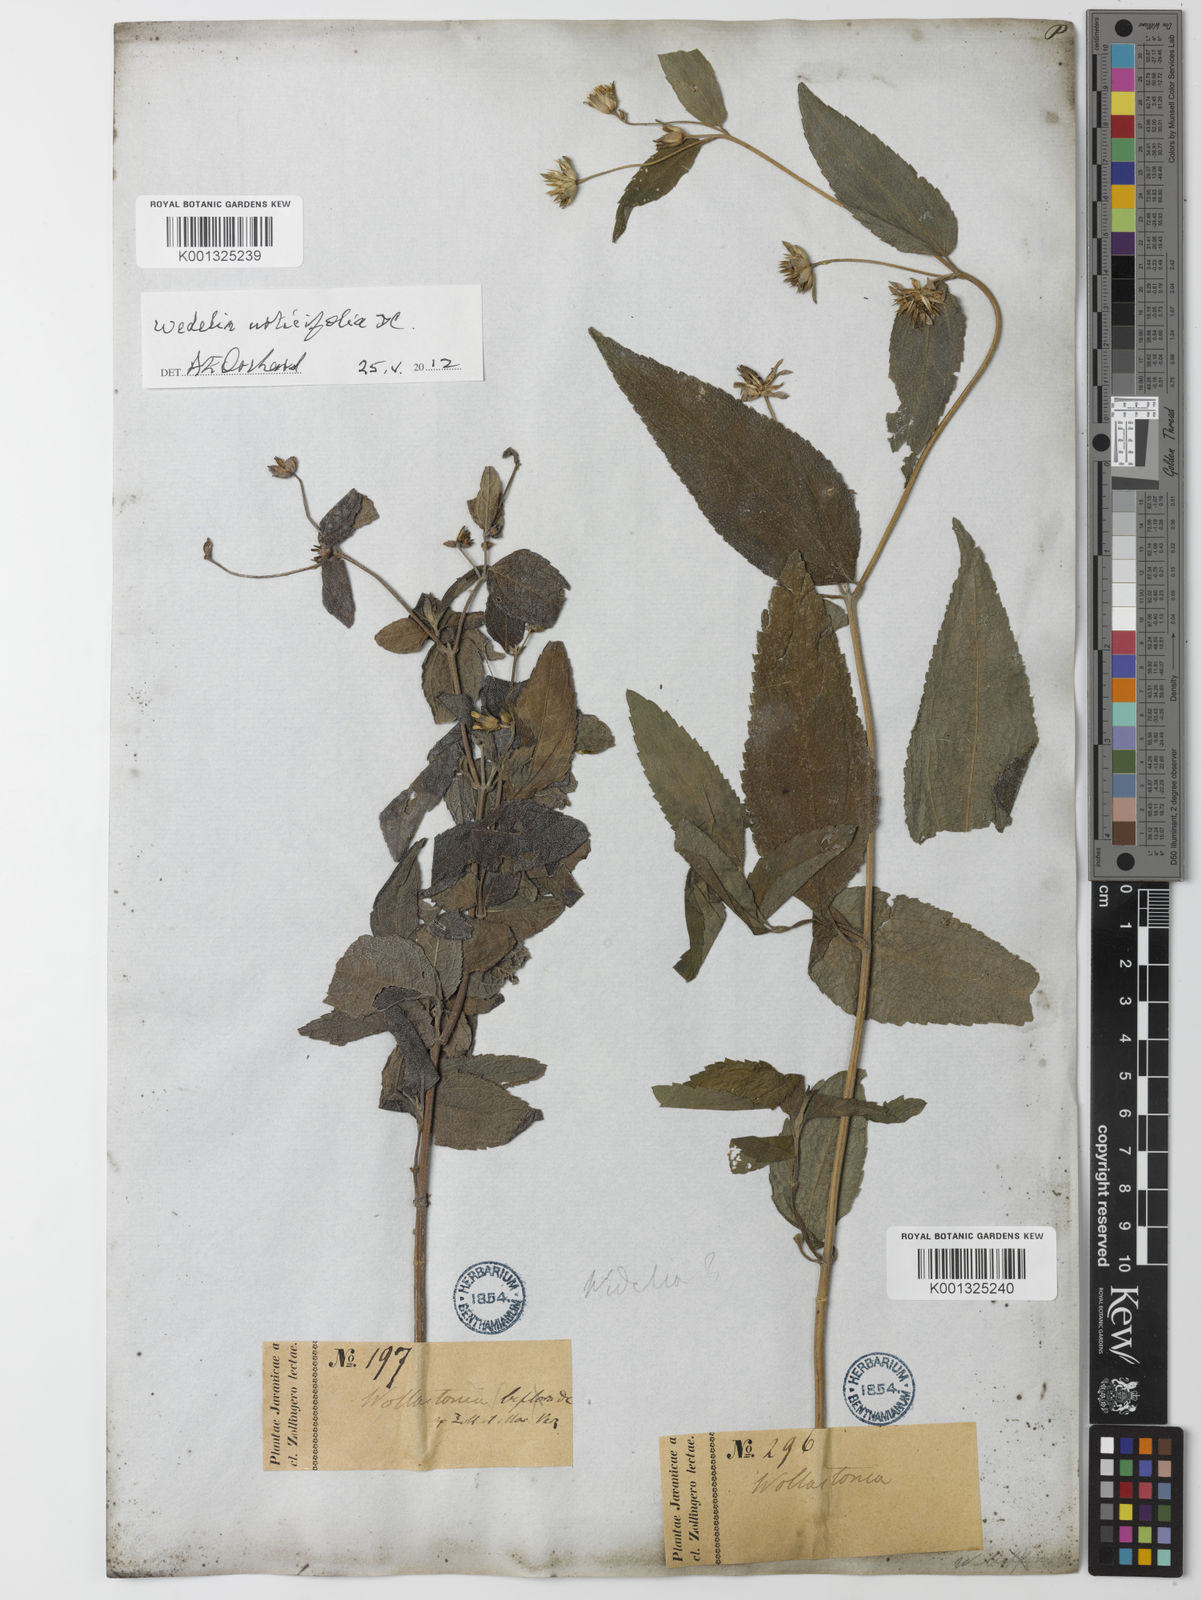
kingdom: Plantae
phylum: Tracheophyta
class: Magnoliopsida
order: Asterales
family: Asteraceae
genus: Lipoblepharis
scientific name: Lipoblepharis urticifolia
